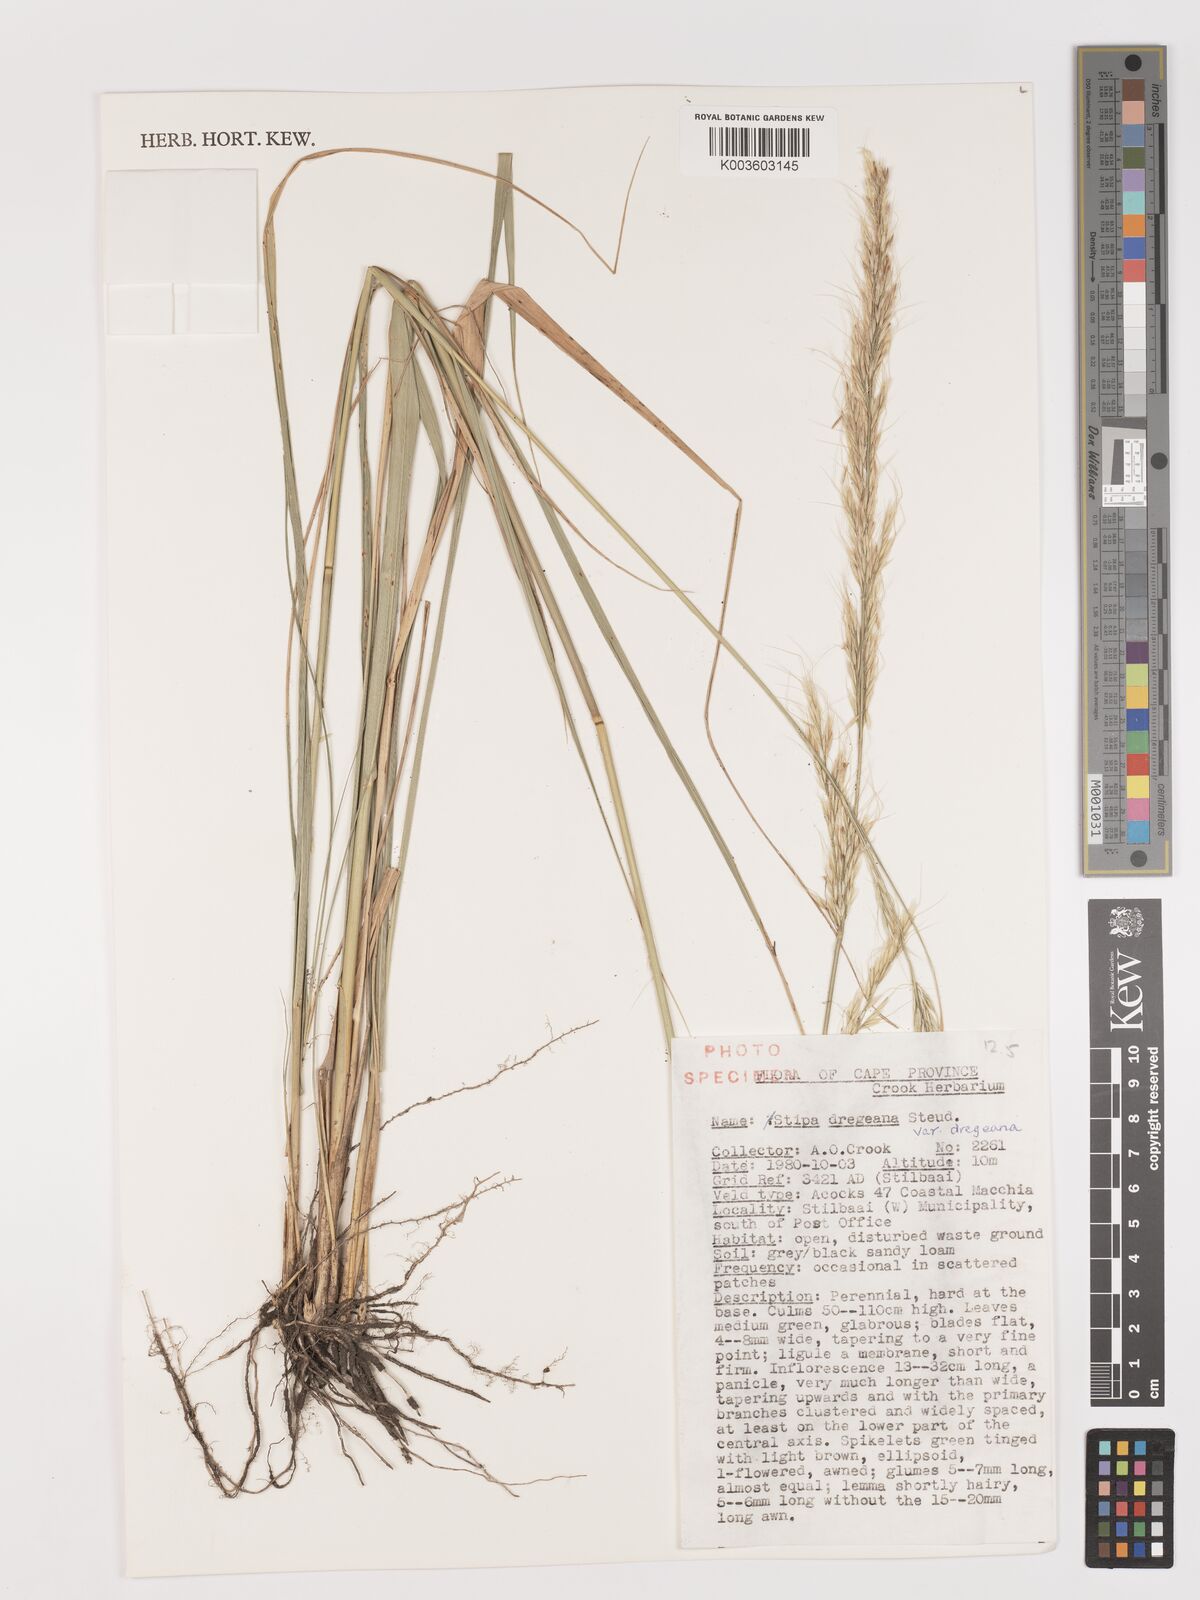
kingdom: Plantae
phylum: Tracheophyta
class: Liliopsida
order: Poales
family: Poaceae
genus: Stipa
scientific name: Stipa dregeana
